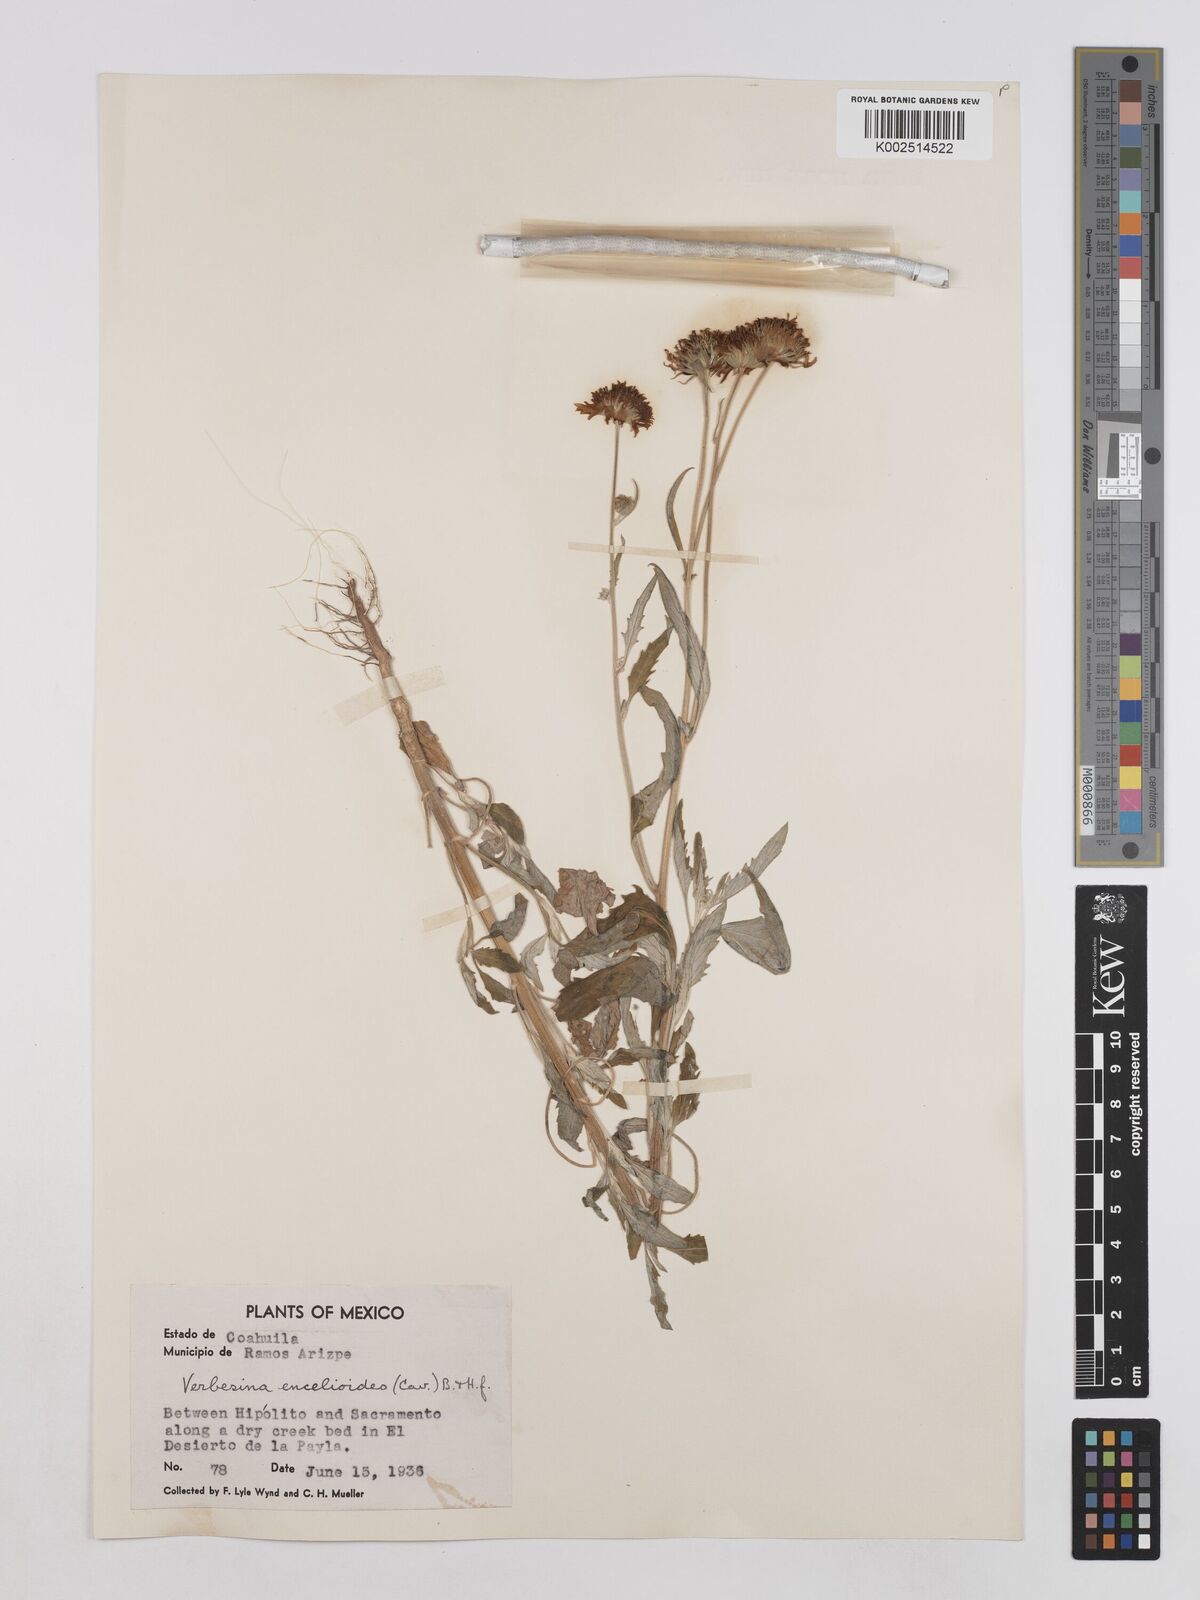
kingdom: Plantae
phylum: Tracheophyta
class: Magnoliopsida
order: Asterales
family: Asteraceae
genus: Verbesina
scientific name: Verbesina encelioides
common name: Golden crownbeard
